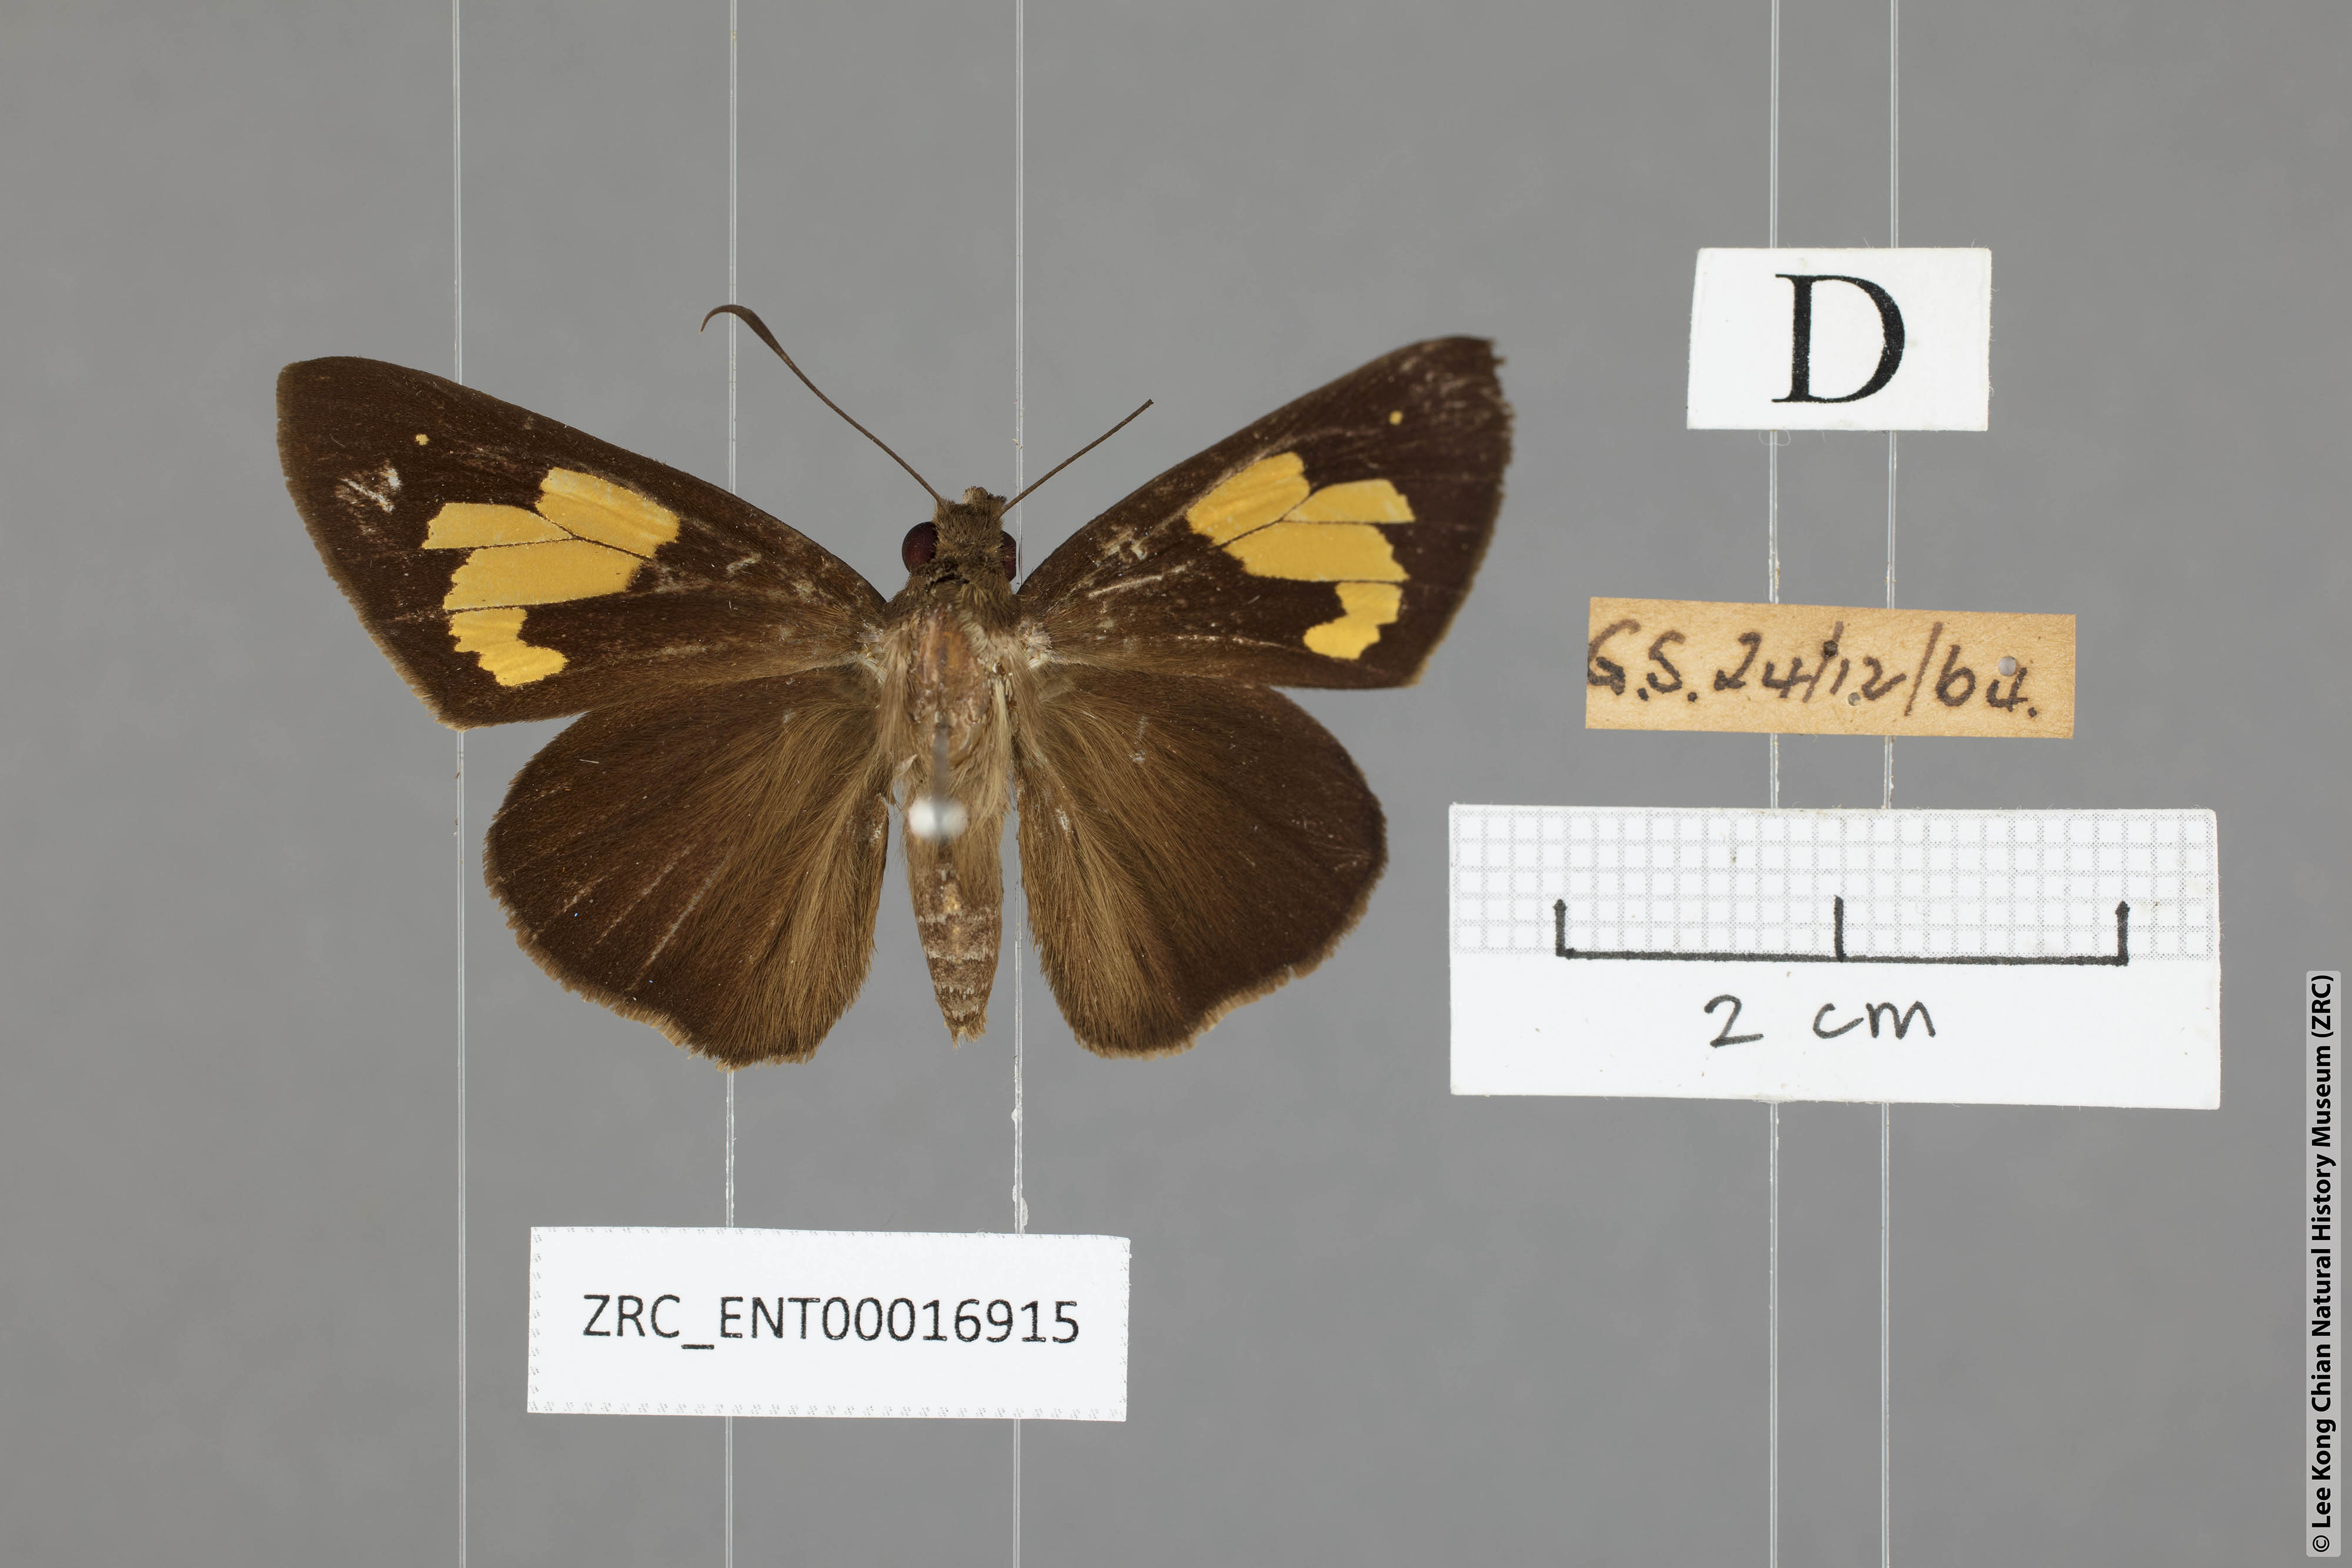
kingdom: Animalia
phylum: Arthropoda
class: Insecta
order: Lepidoptera
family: Hesperiidae
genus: Erionota
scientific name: Erionota
